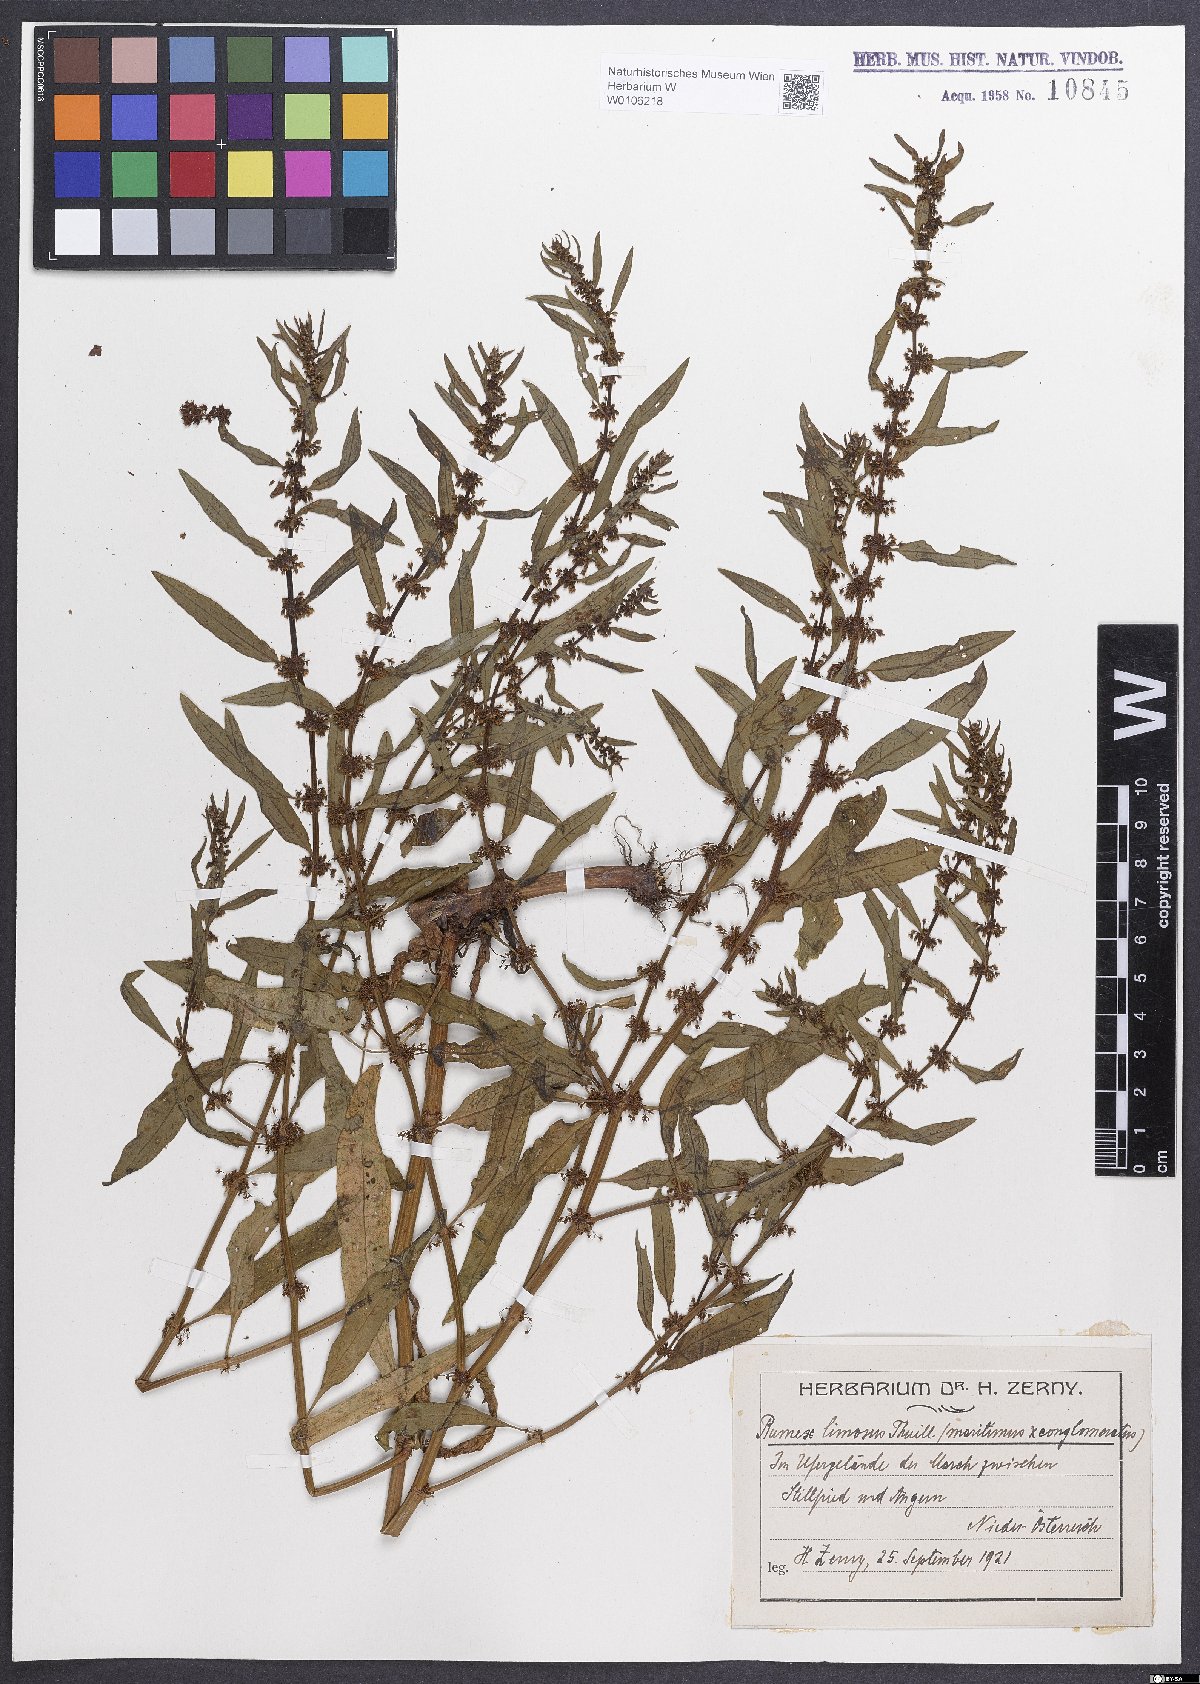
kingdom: Plantae
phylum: Tracheophyta
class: Magnoliopsida
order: Caryophyllales
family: Polygonaceae
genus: Rumex
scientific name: Rumex
